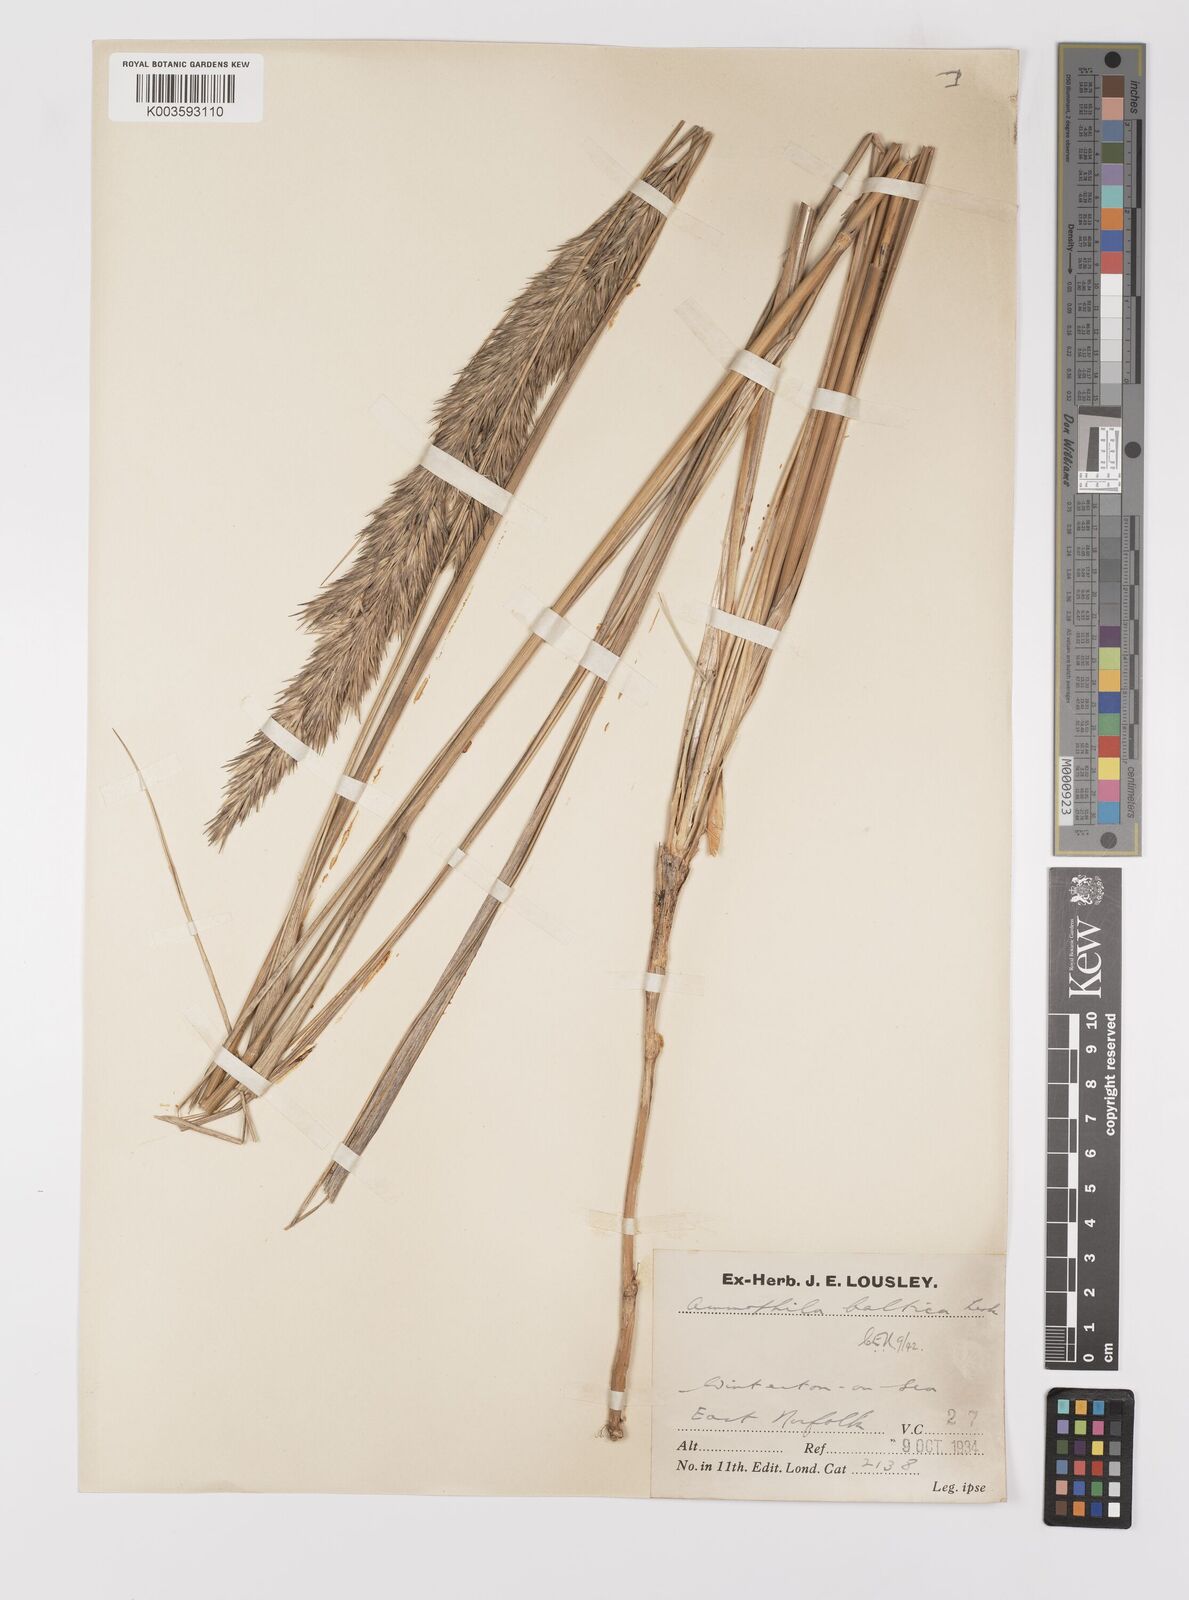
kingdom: Plantae
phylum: Tracheophyta
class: Liliopsida
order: Poales
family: Poaceae
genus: Calamagrostis
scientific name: Calamagrostis baltica
